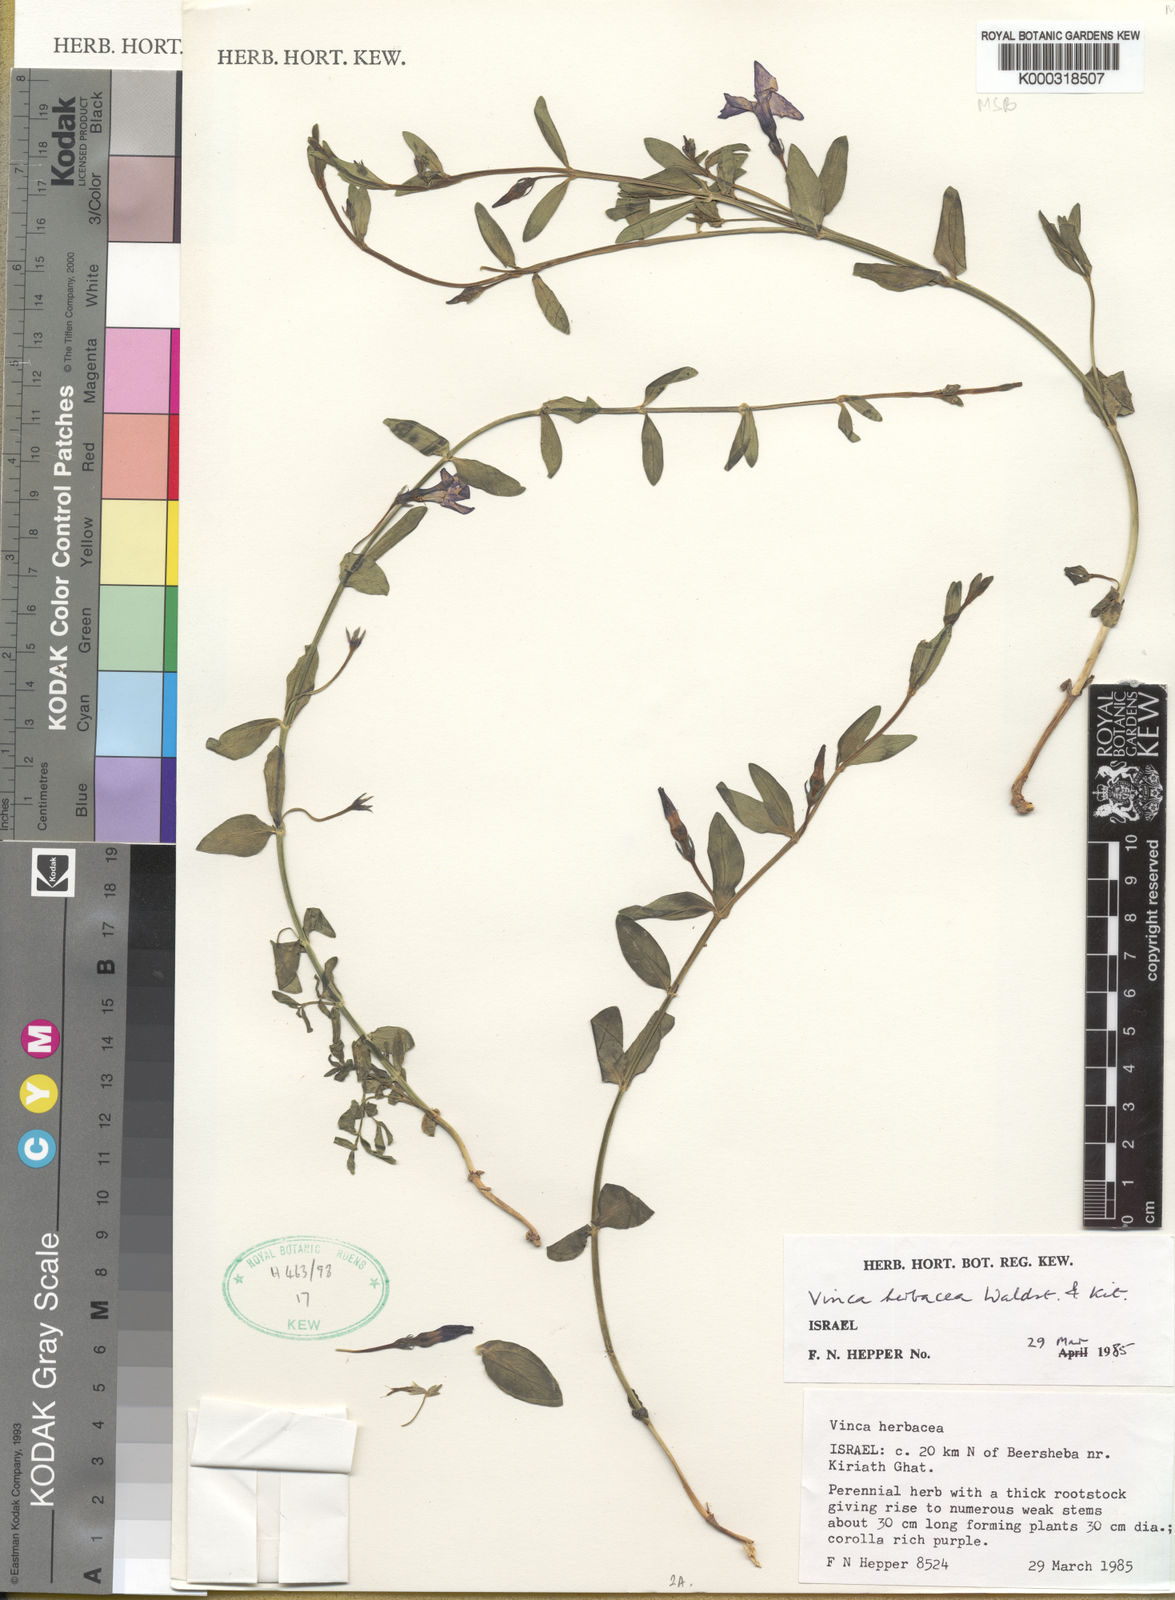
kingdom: Plantae
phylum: Tracheophyta
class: Magnoliopsida
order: Gentianales
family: Apocynaceae
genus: Vinca
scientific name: Vinca herbacea
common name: Herbaceous periwinkle
